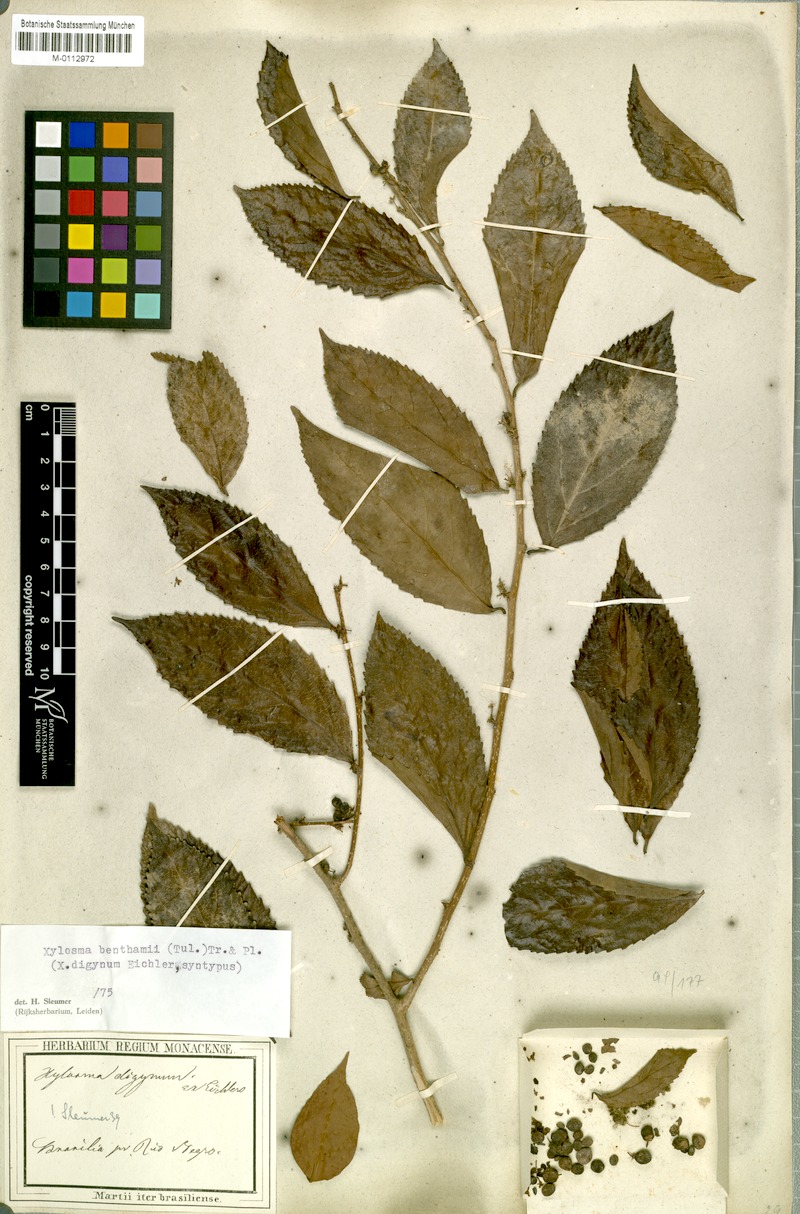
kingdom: Plantae
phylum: Tracheophyta
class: Magnoliopsida
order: Malpighiales
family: Salicaceae
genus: Xylosma
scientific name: Xylosma benthamii
